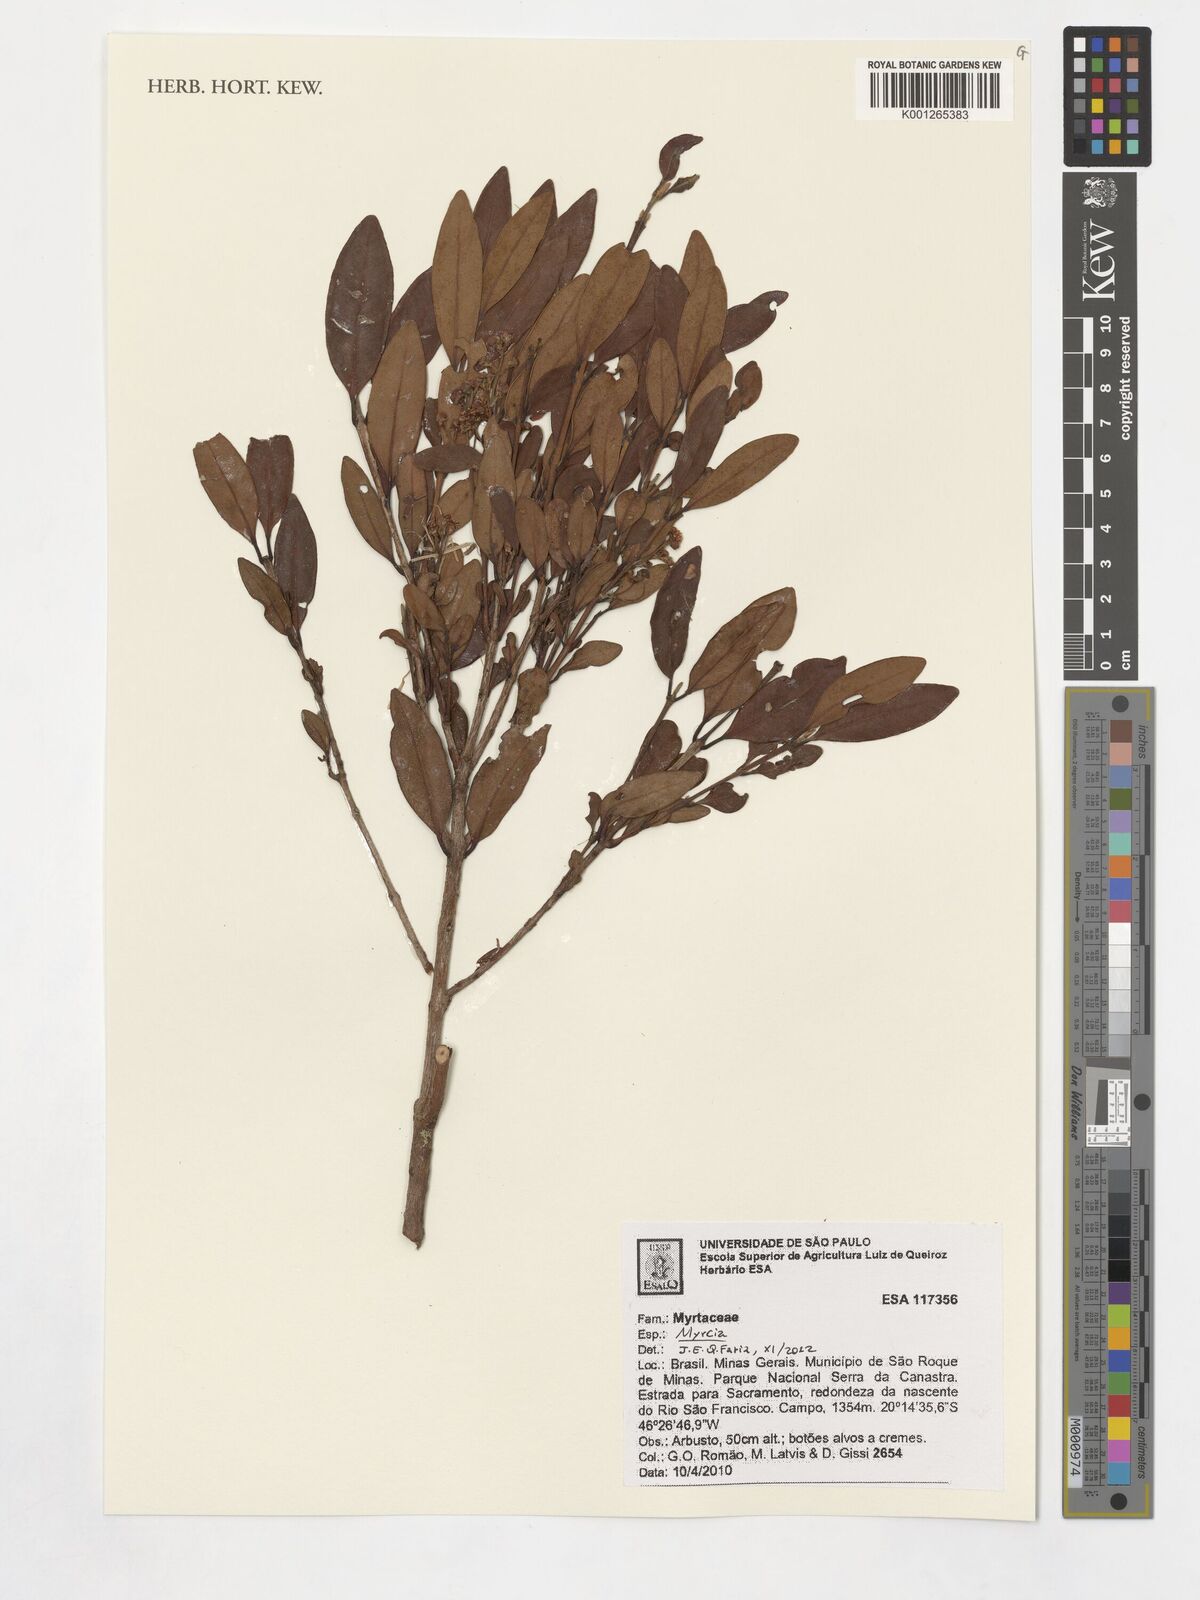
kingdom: Plantae
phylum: Tracheophyta
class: Magnoliopsida
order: Myrtales
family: Myrtaceae
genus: Myrcia
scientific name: Myrcia hartwegiana
